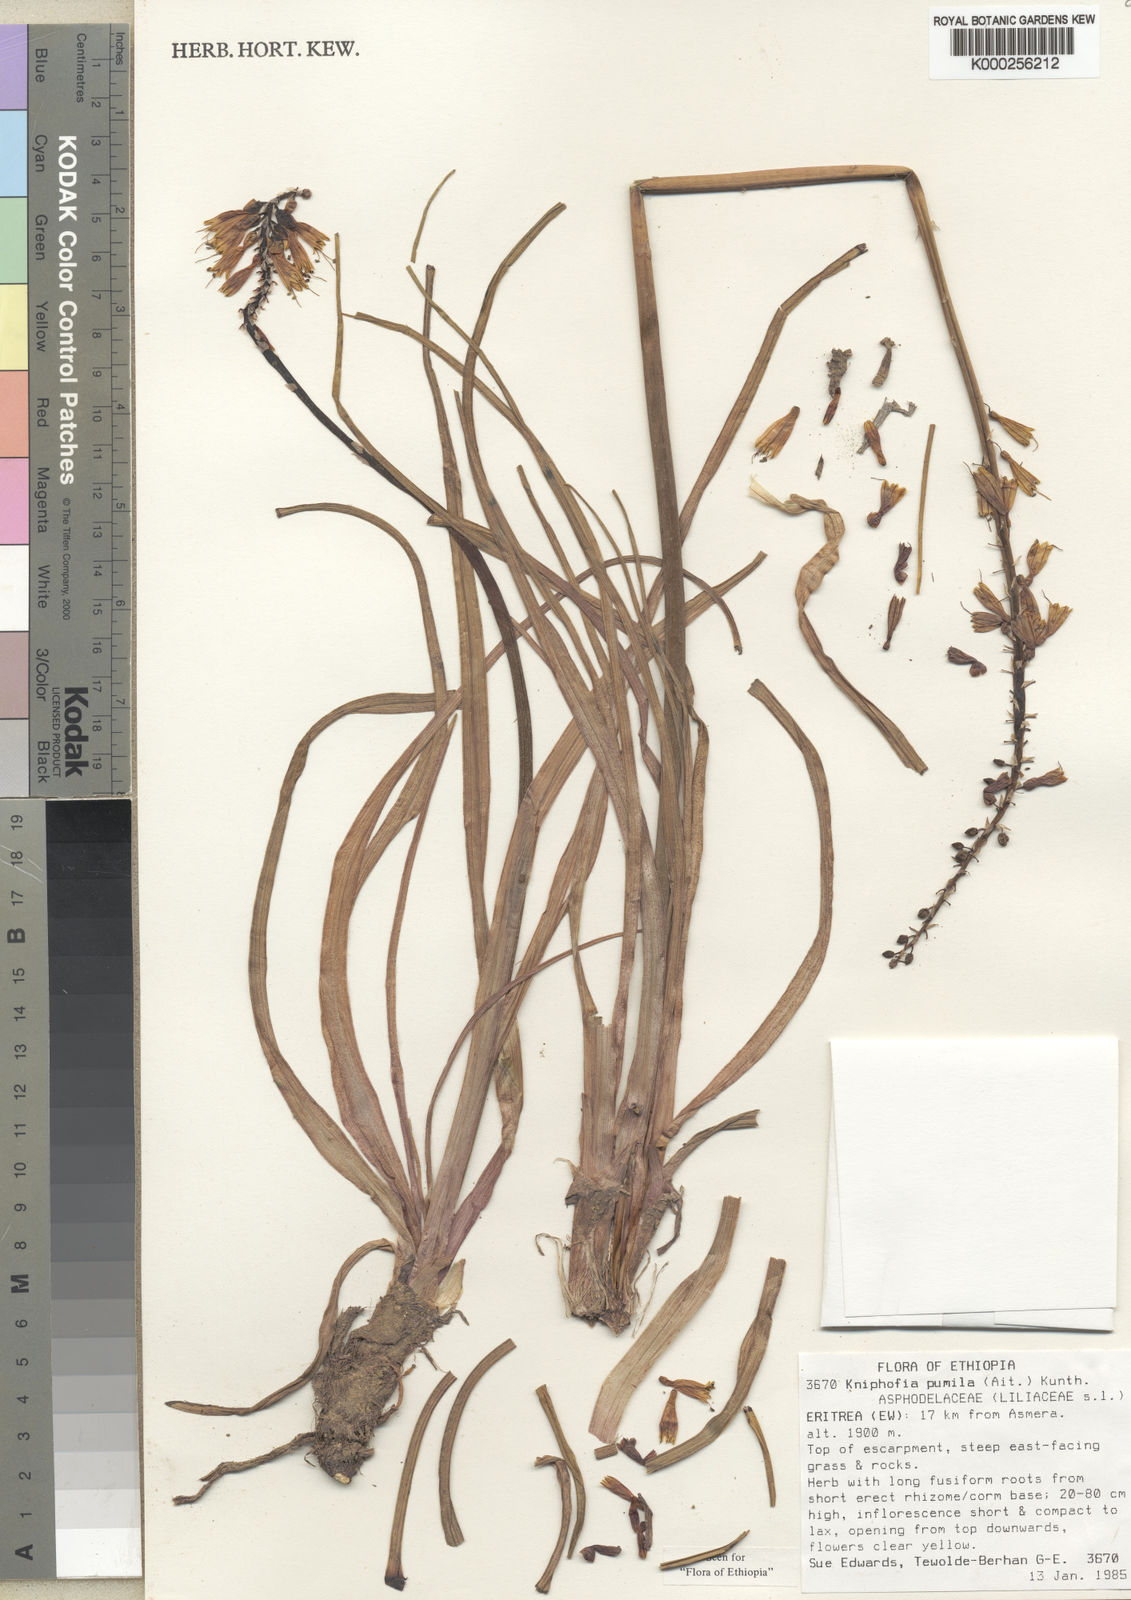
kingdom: Plantae
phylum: Tracheophyta
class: Liliopsida
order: Asparagales
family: Asphodelaceae
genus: Kniphofia
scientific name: Kniphofia schimperi
